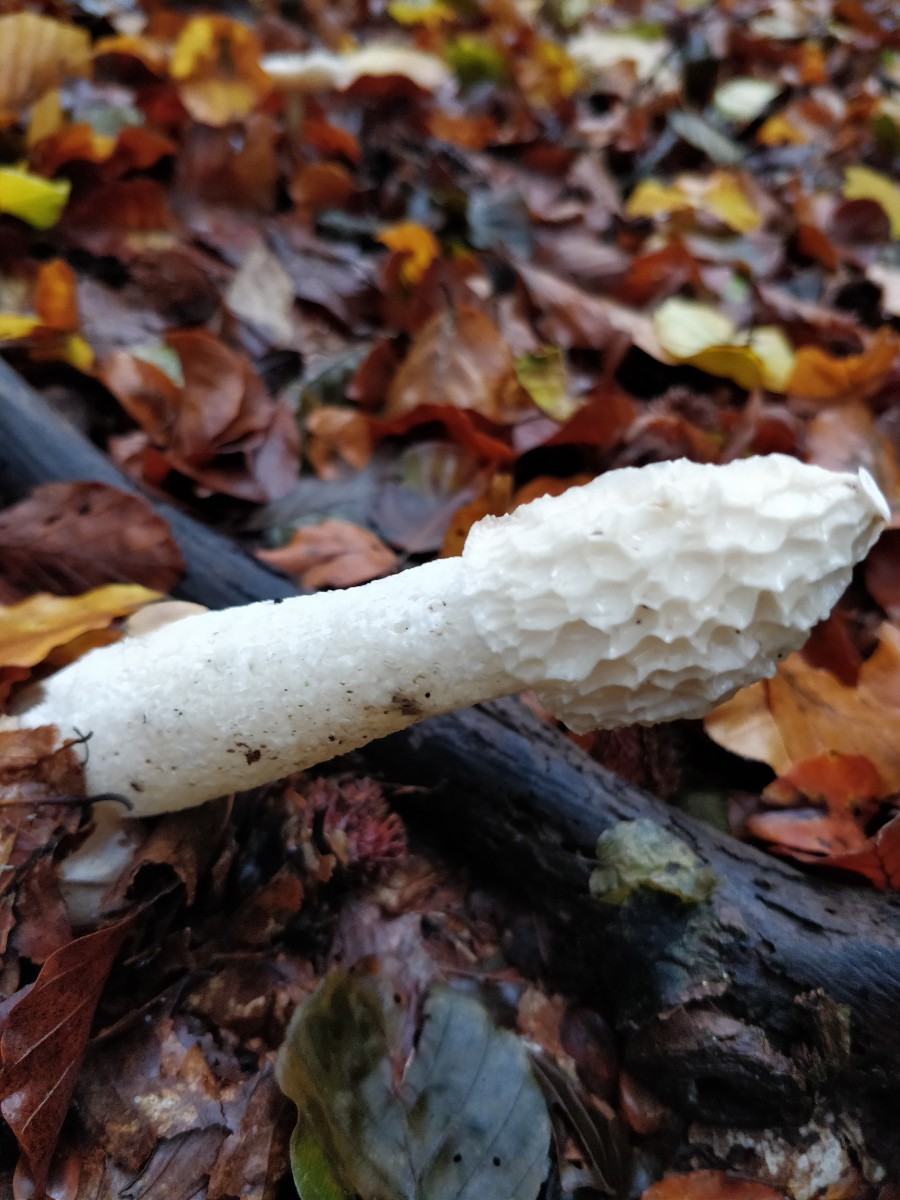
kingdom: Fungi
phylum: Basidiomycota
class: Agaricomycetes
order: Phallales
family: Phallaceae
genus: Phallus
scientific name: Phallus impudicus
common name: almindelig stinksvamp
